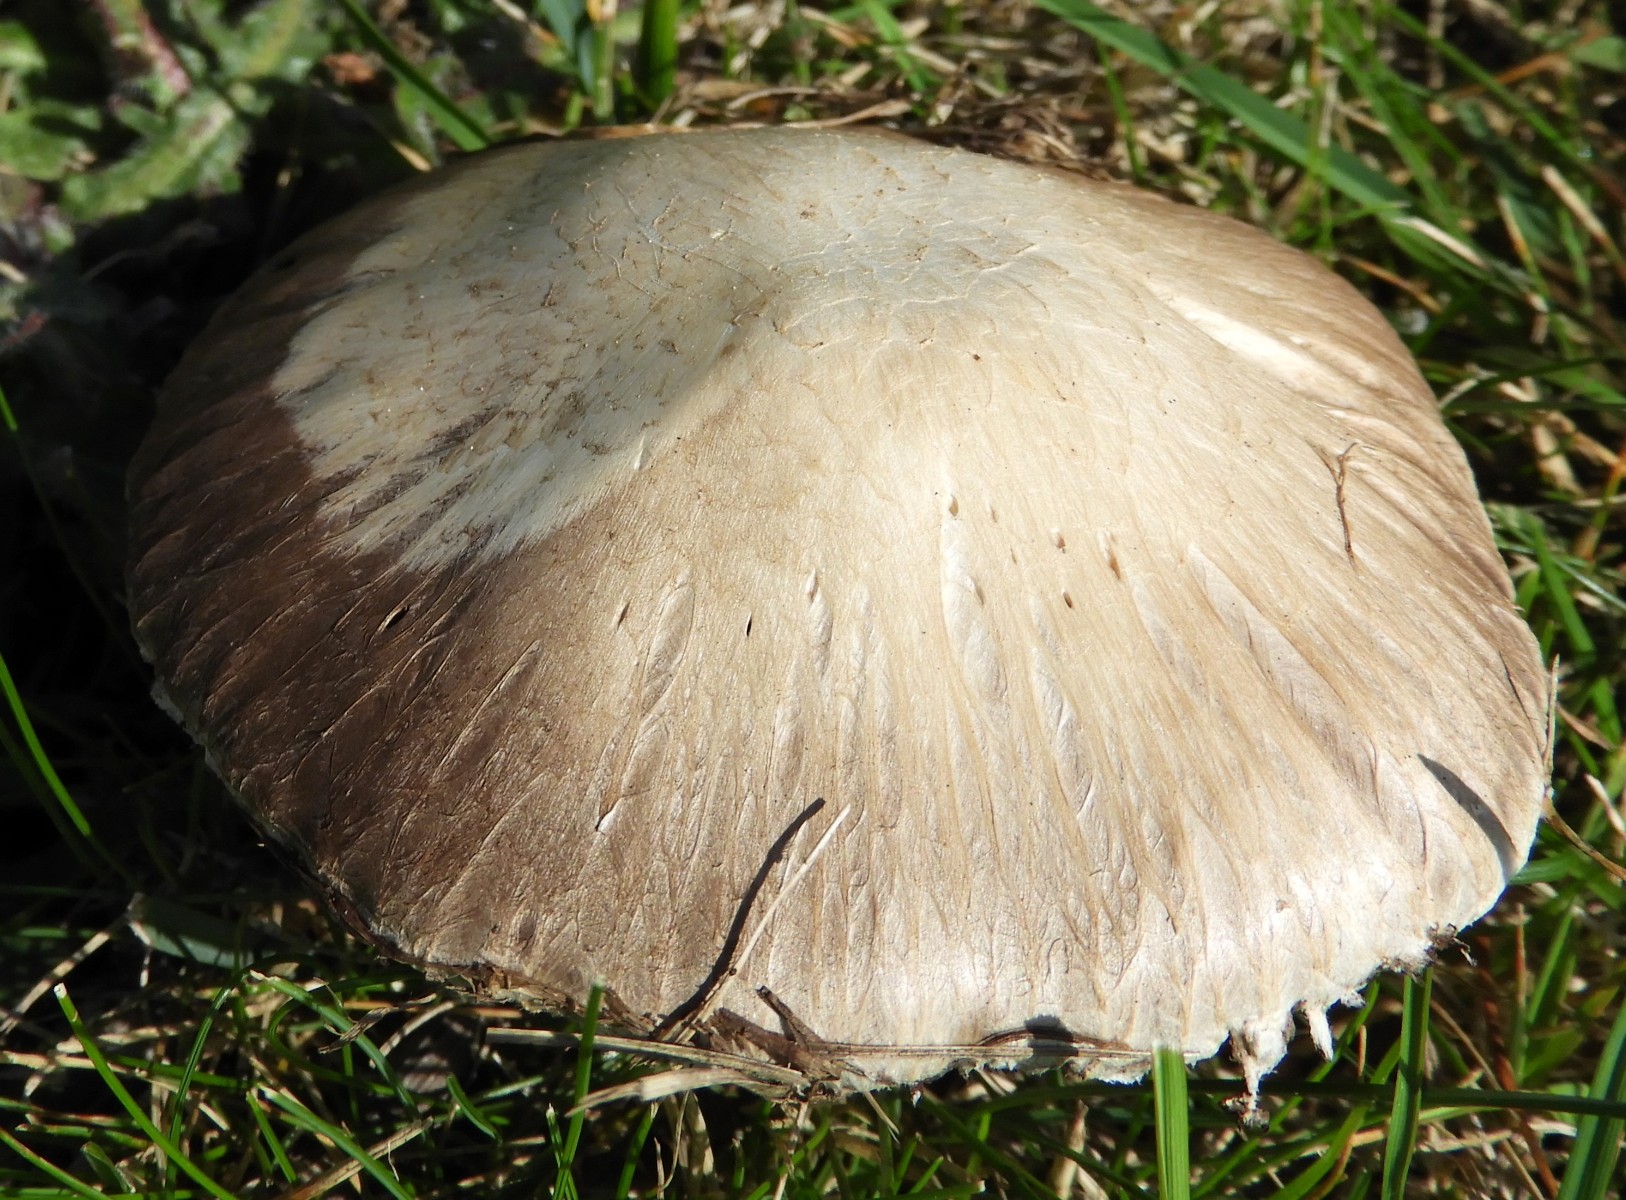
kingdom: Fungi
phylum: Basidiomycota
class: Agaricomycetes
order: Agaricales
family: Agaricaceae
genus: Agaricus
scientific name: Agaricus campestris
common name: mark-champignon
